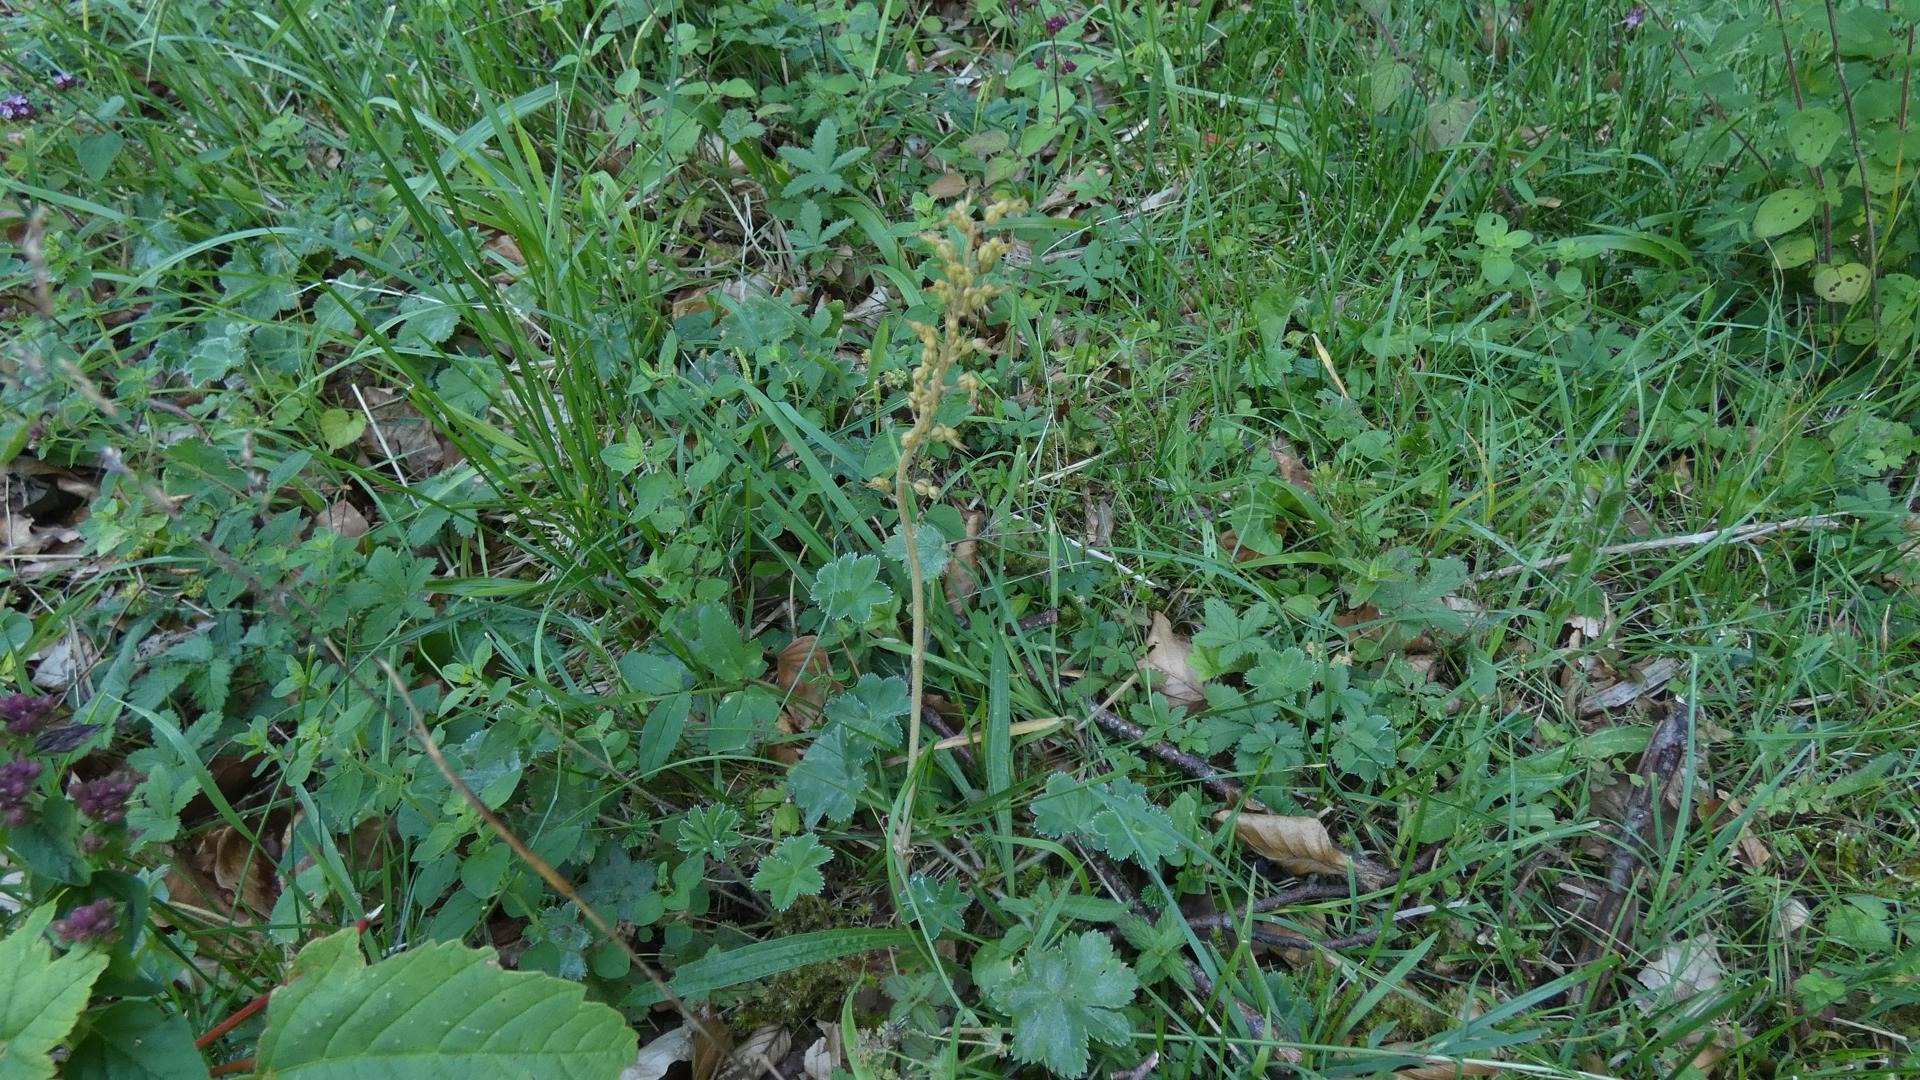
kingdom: Plantae
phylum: Tracheophyta
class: Liliopsida
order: Asparagales
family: Orchidaceae
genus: Neottia
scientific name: Neottia ovata
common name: Ægbladet fliglæbe
